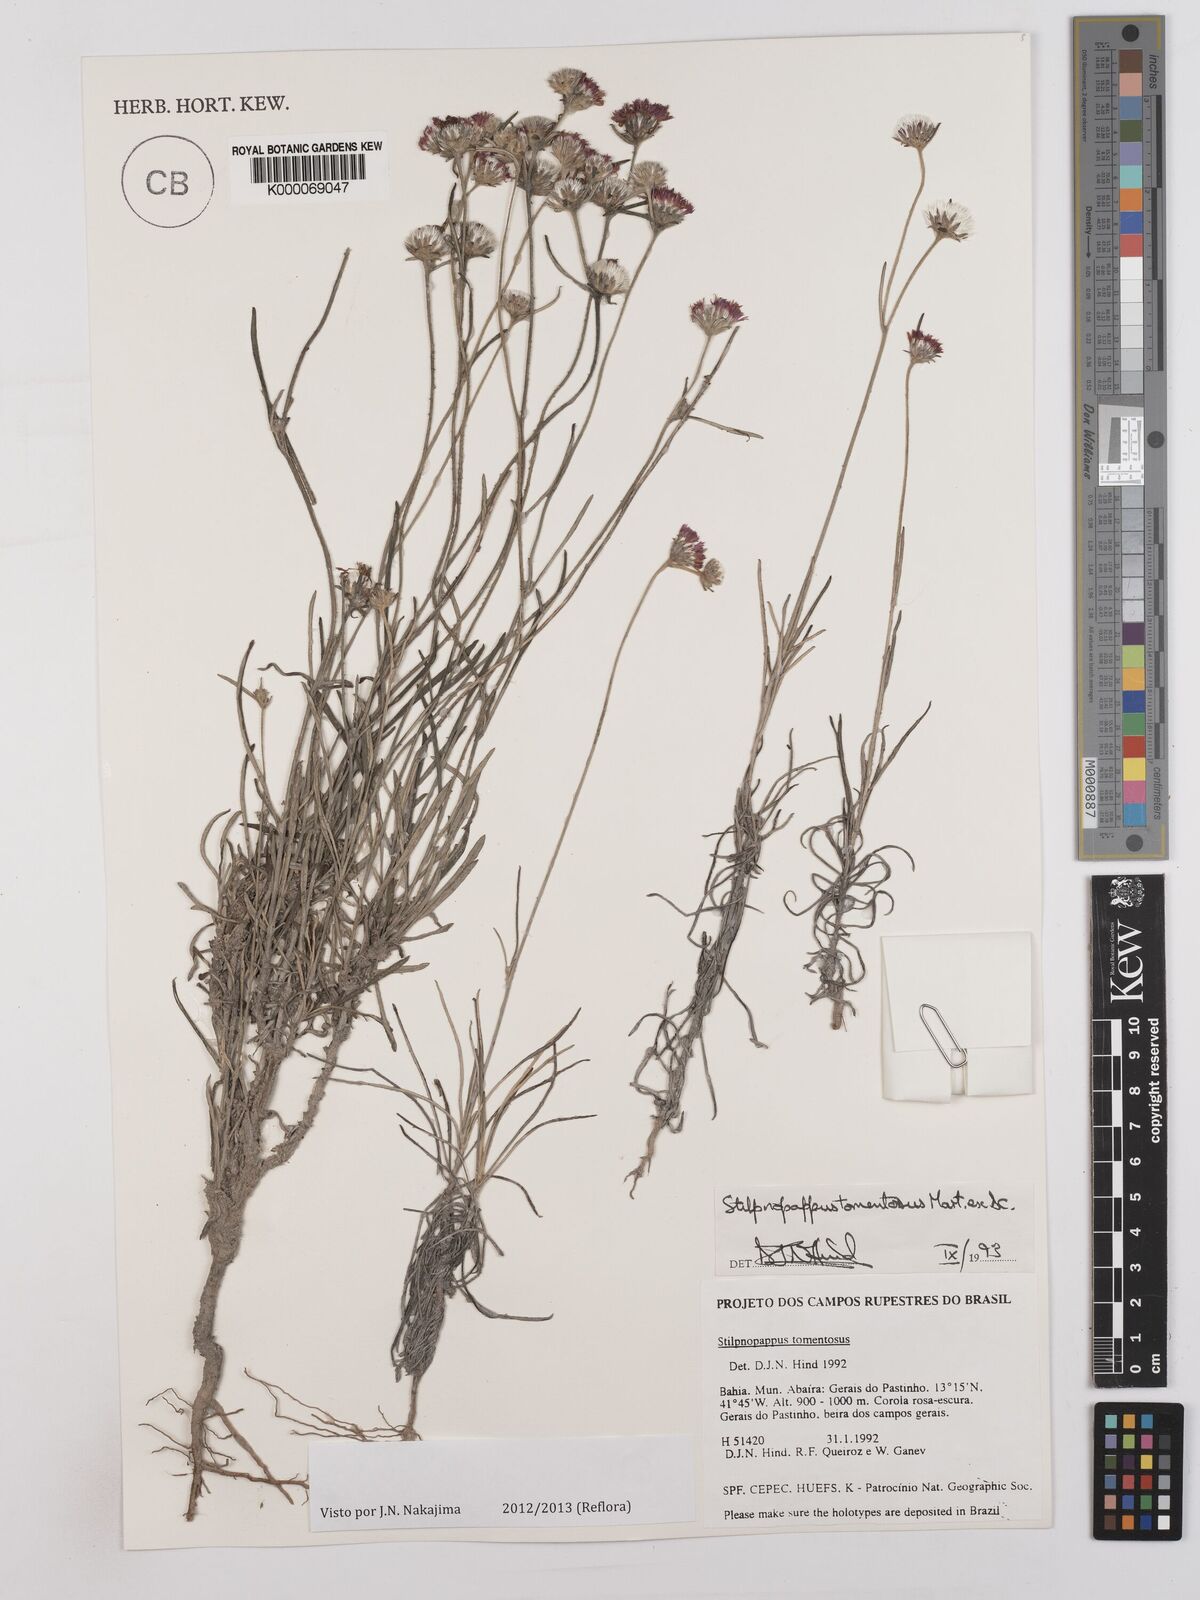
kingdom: Plantae
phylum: Tracheophyta
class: Magnoliopsida
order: Asterales
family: Asteraceae
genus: Stilpnopappus
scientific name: Stilpnopappus tomentosus
